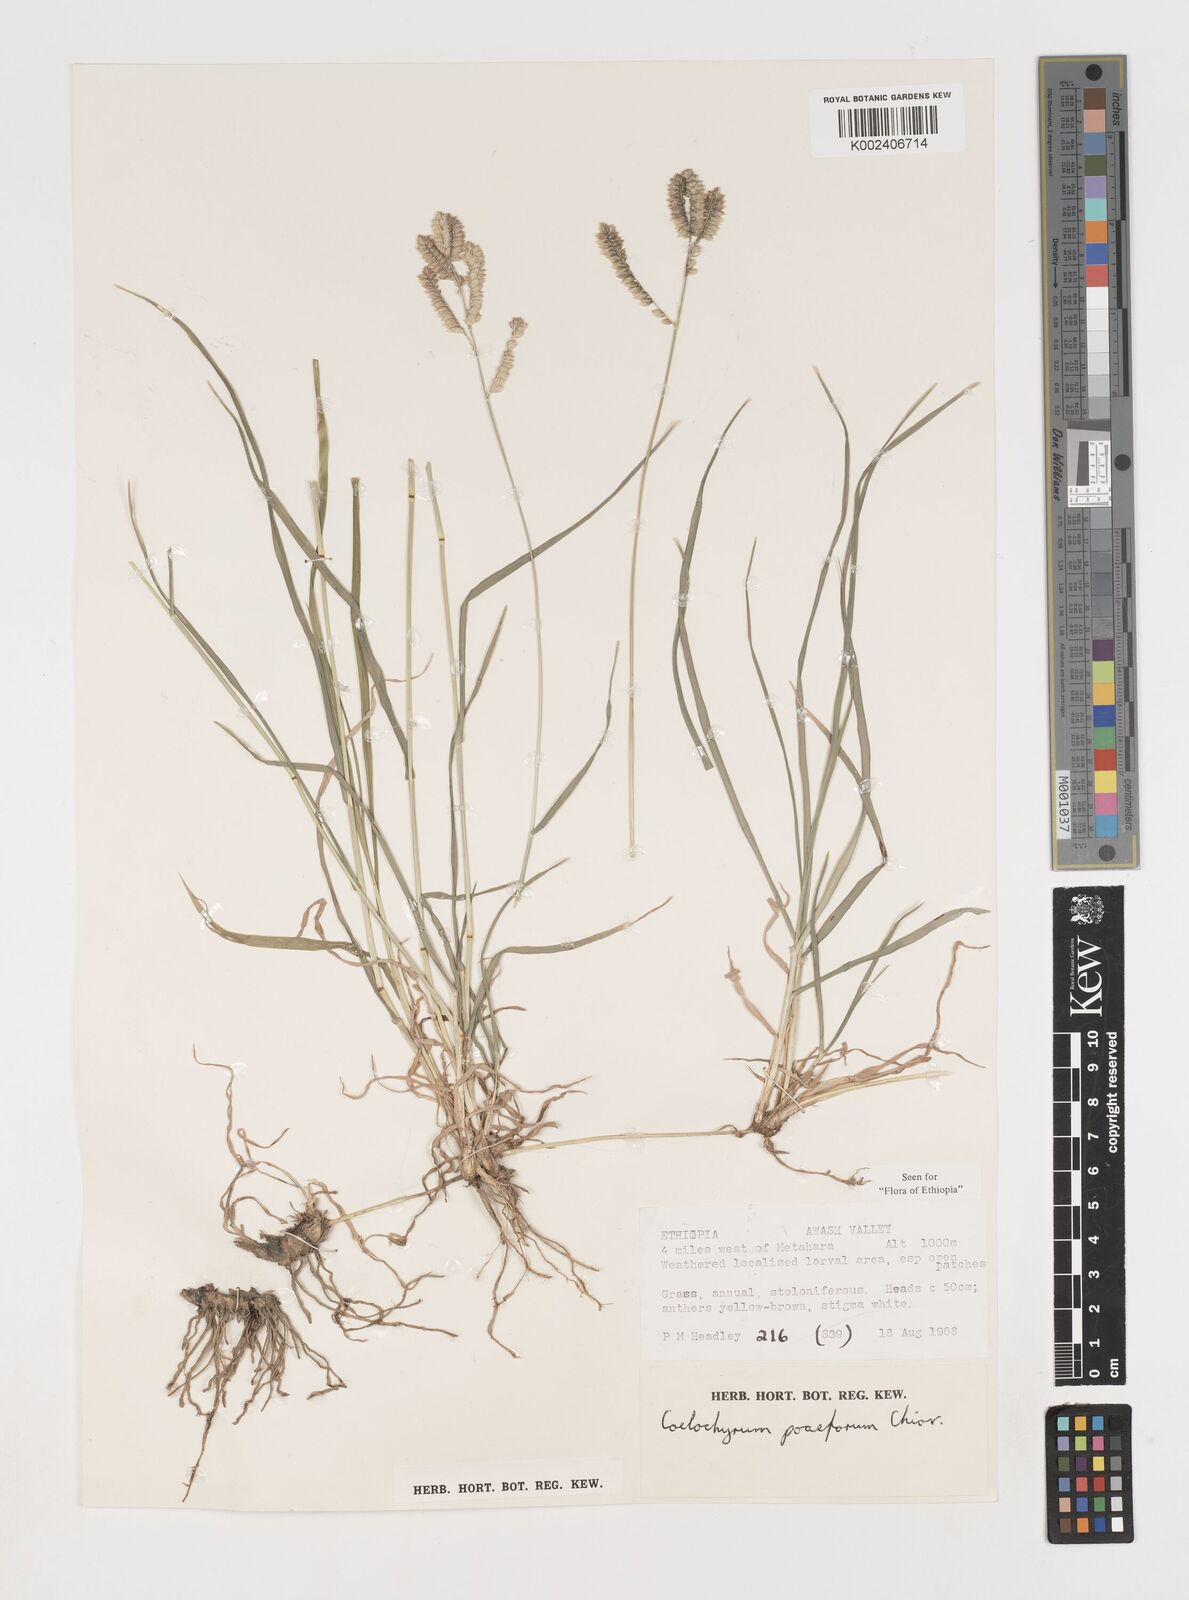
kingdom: Plantae
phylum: Tracheophyta
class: Liliopsida
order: Poales
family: Poaceae
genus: Coelachyrum
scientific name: Coelachyrum poiflorum
